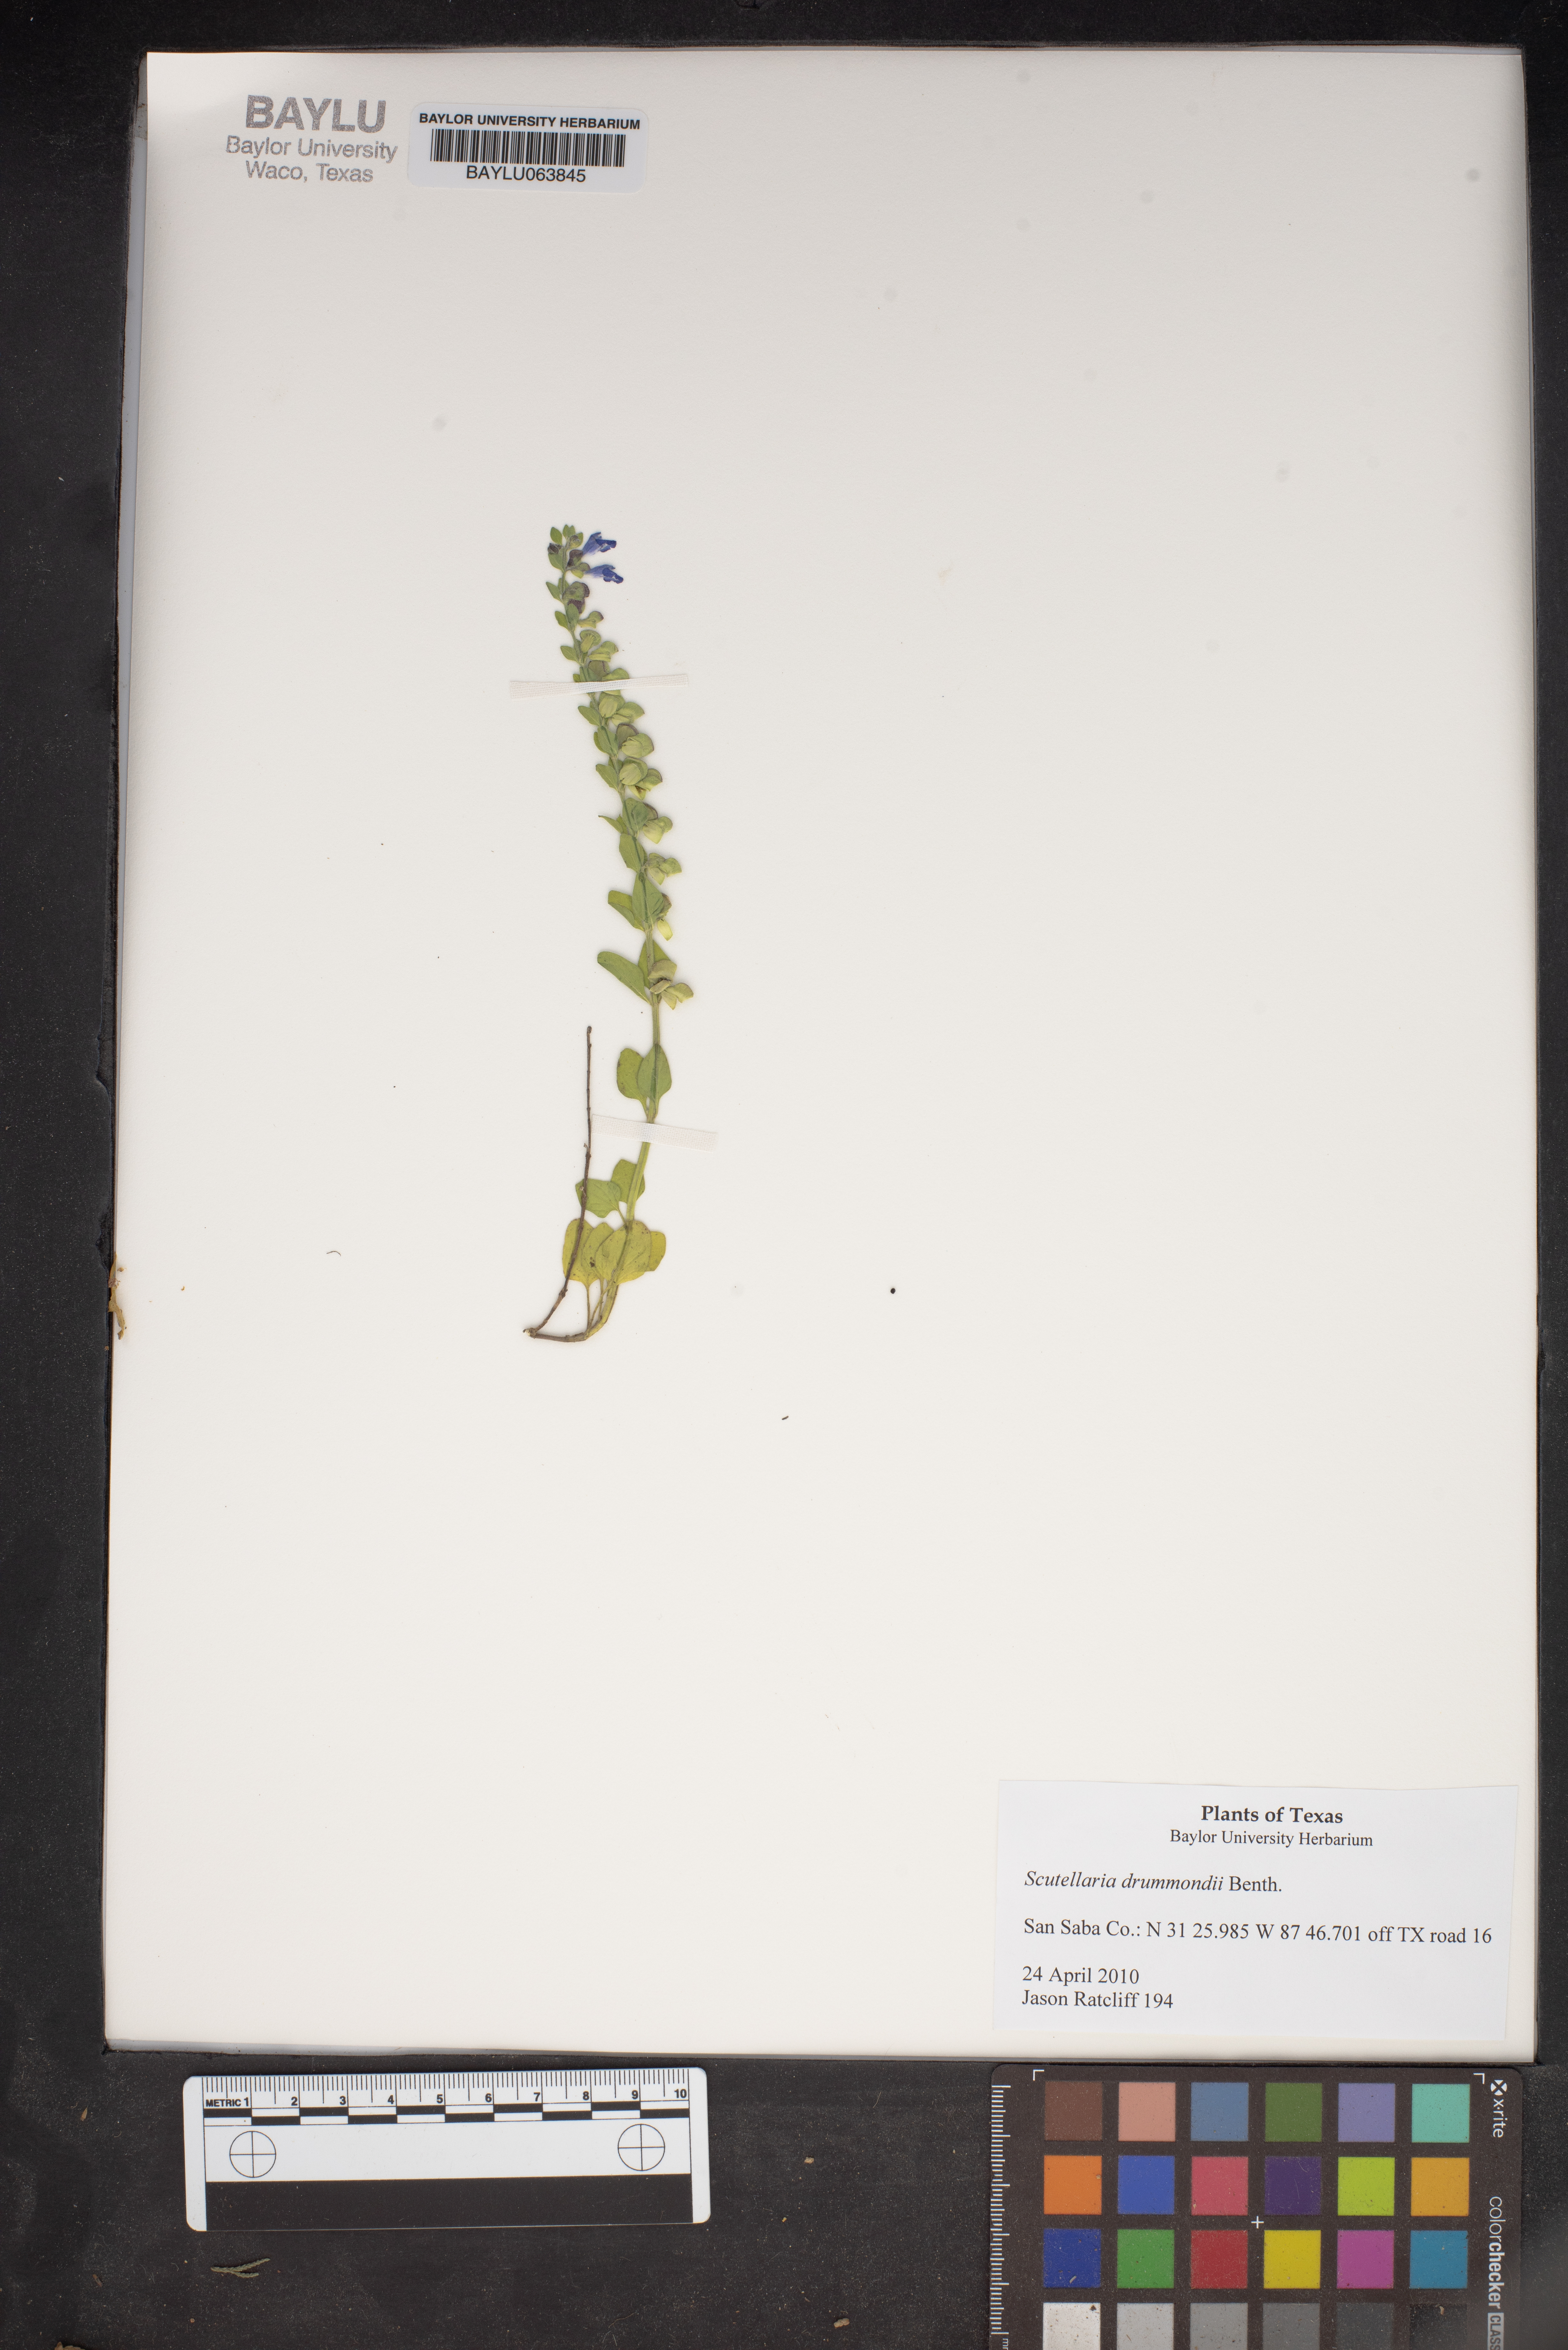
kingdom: Plantae
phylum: Tracheophyta
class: Magnoliopsida
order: Lamiales
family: Lamiaceae
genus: Scutellaria
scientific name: Scutellaria drummondii
